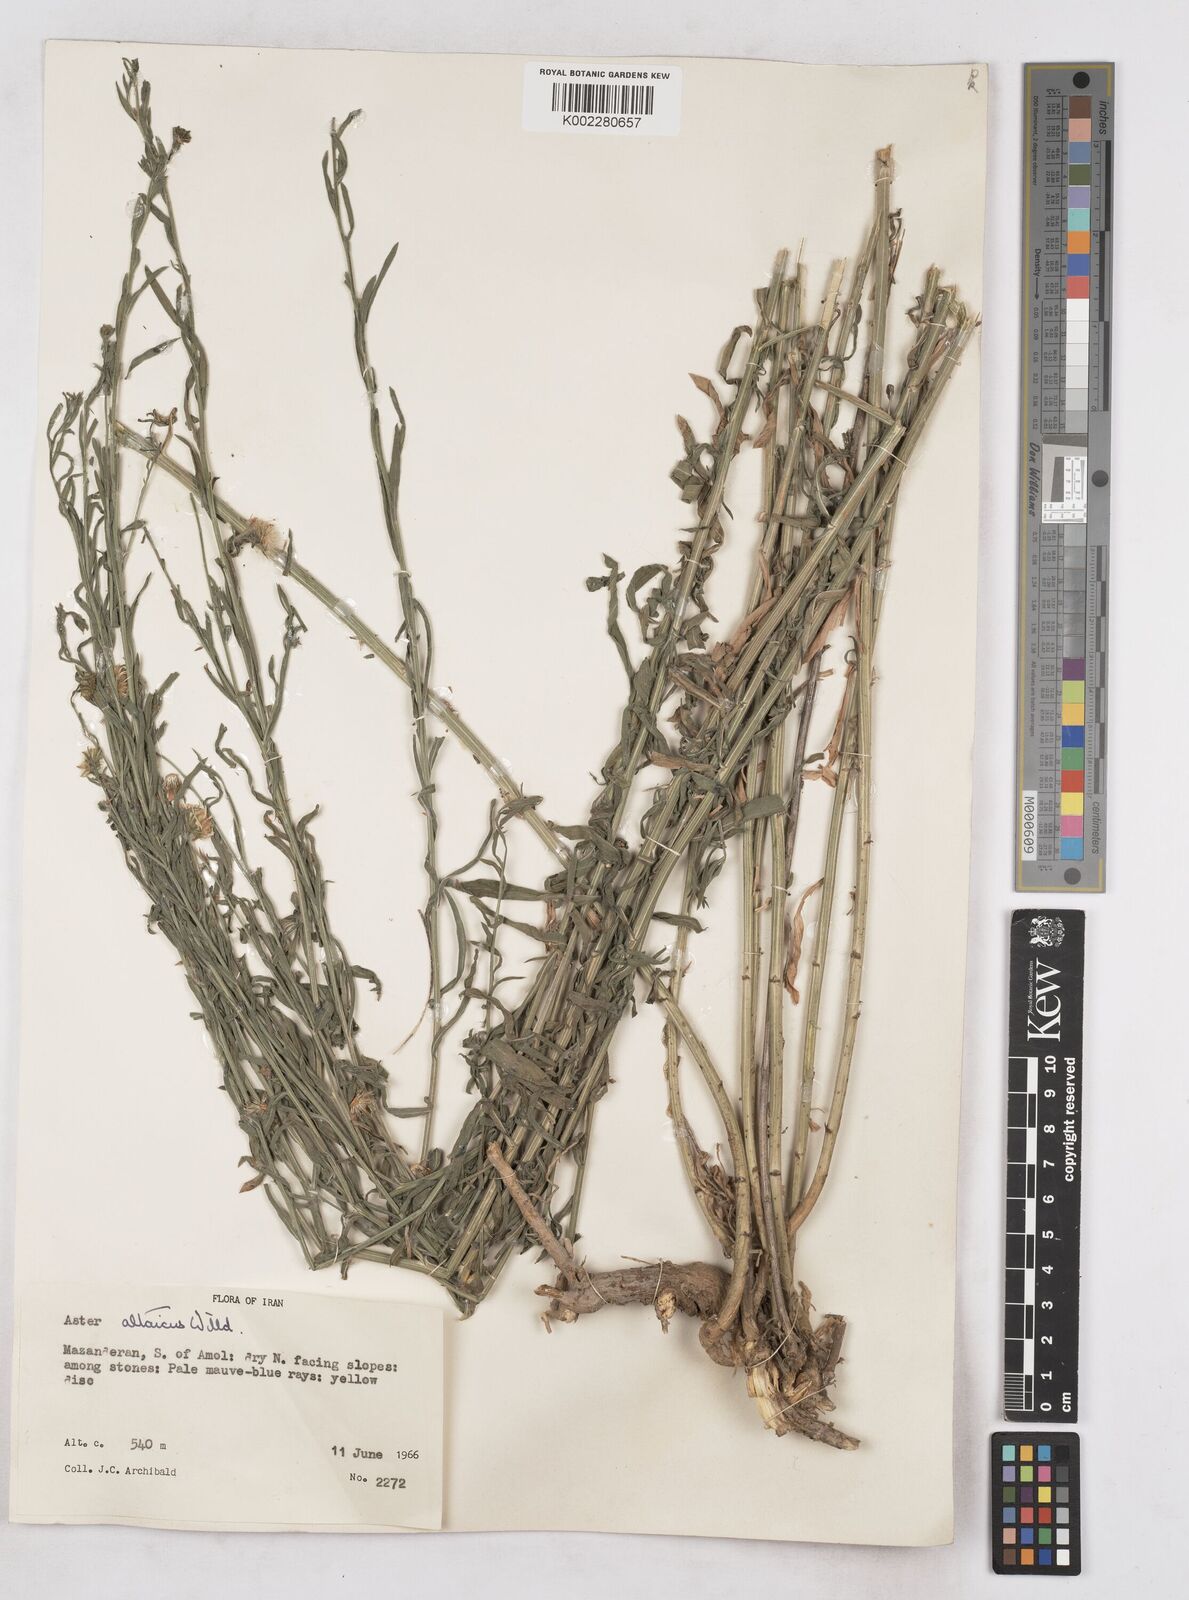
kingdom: Plantae
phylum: Tracheophyta
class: Magnoliopsida
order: Asterales
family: Asteraceae
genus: Heteropappus
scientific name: Heteropappus altaicus
